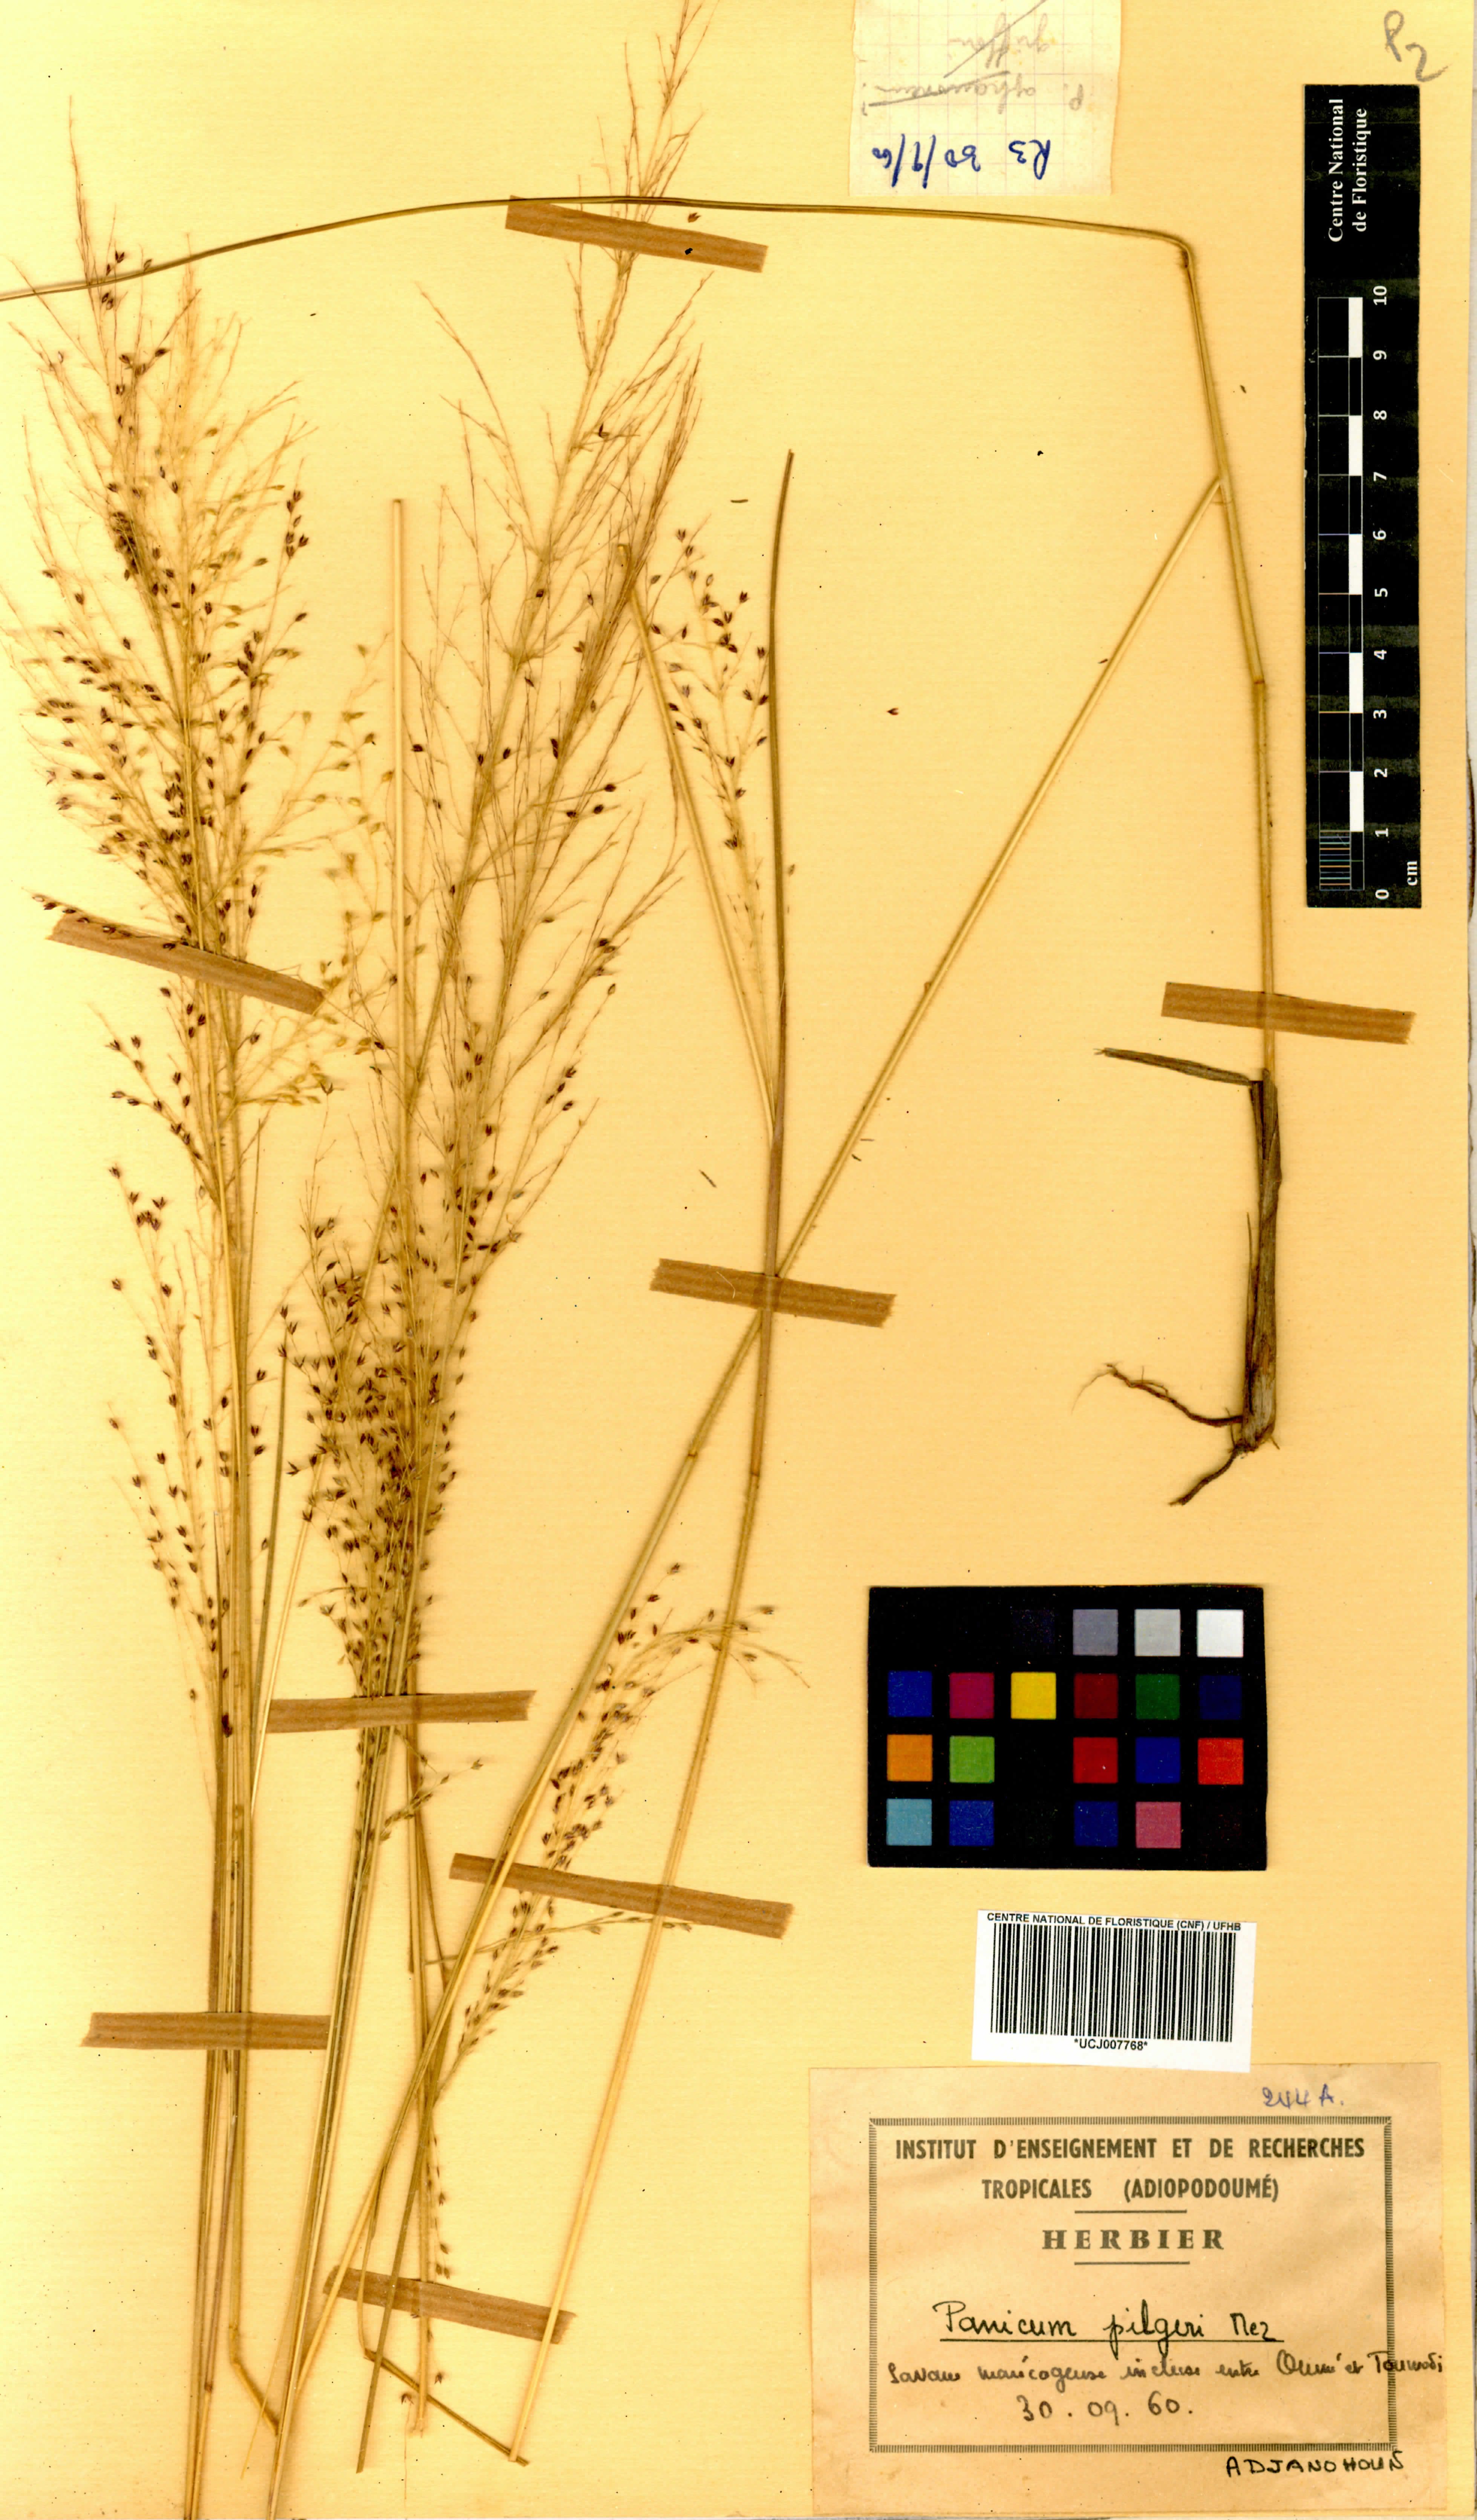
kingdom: Plantae
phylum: Tracheophyta
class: Liliopsida
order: Poales
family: Poaceae
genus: Panicum
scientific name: Panicum pilgeri
